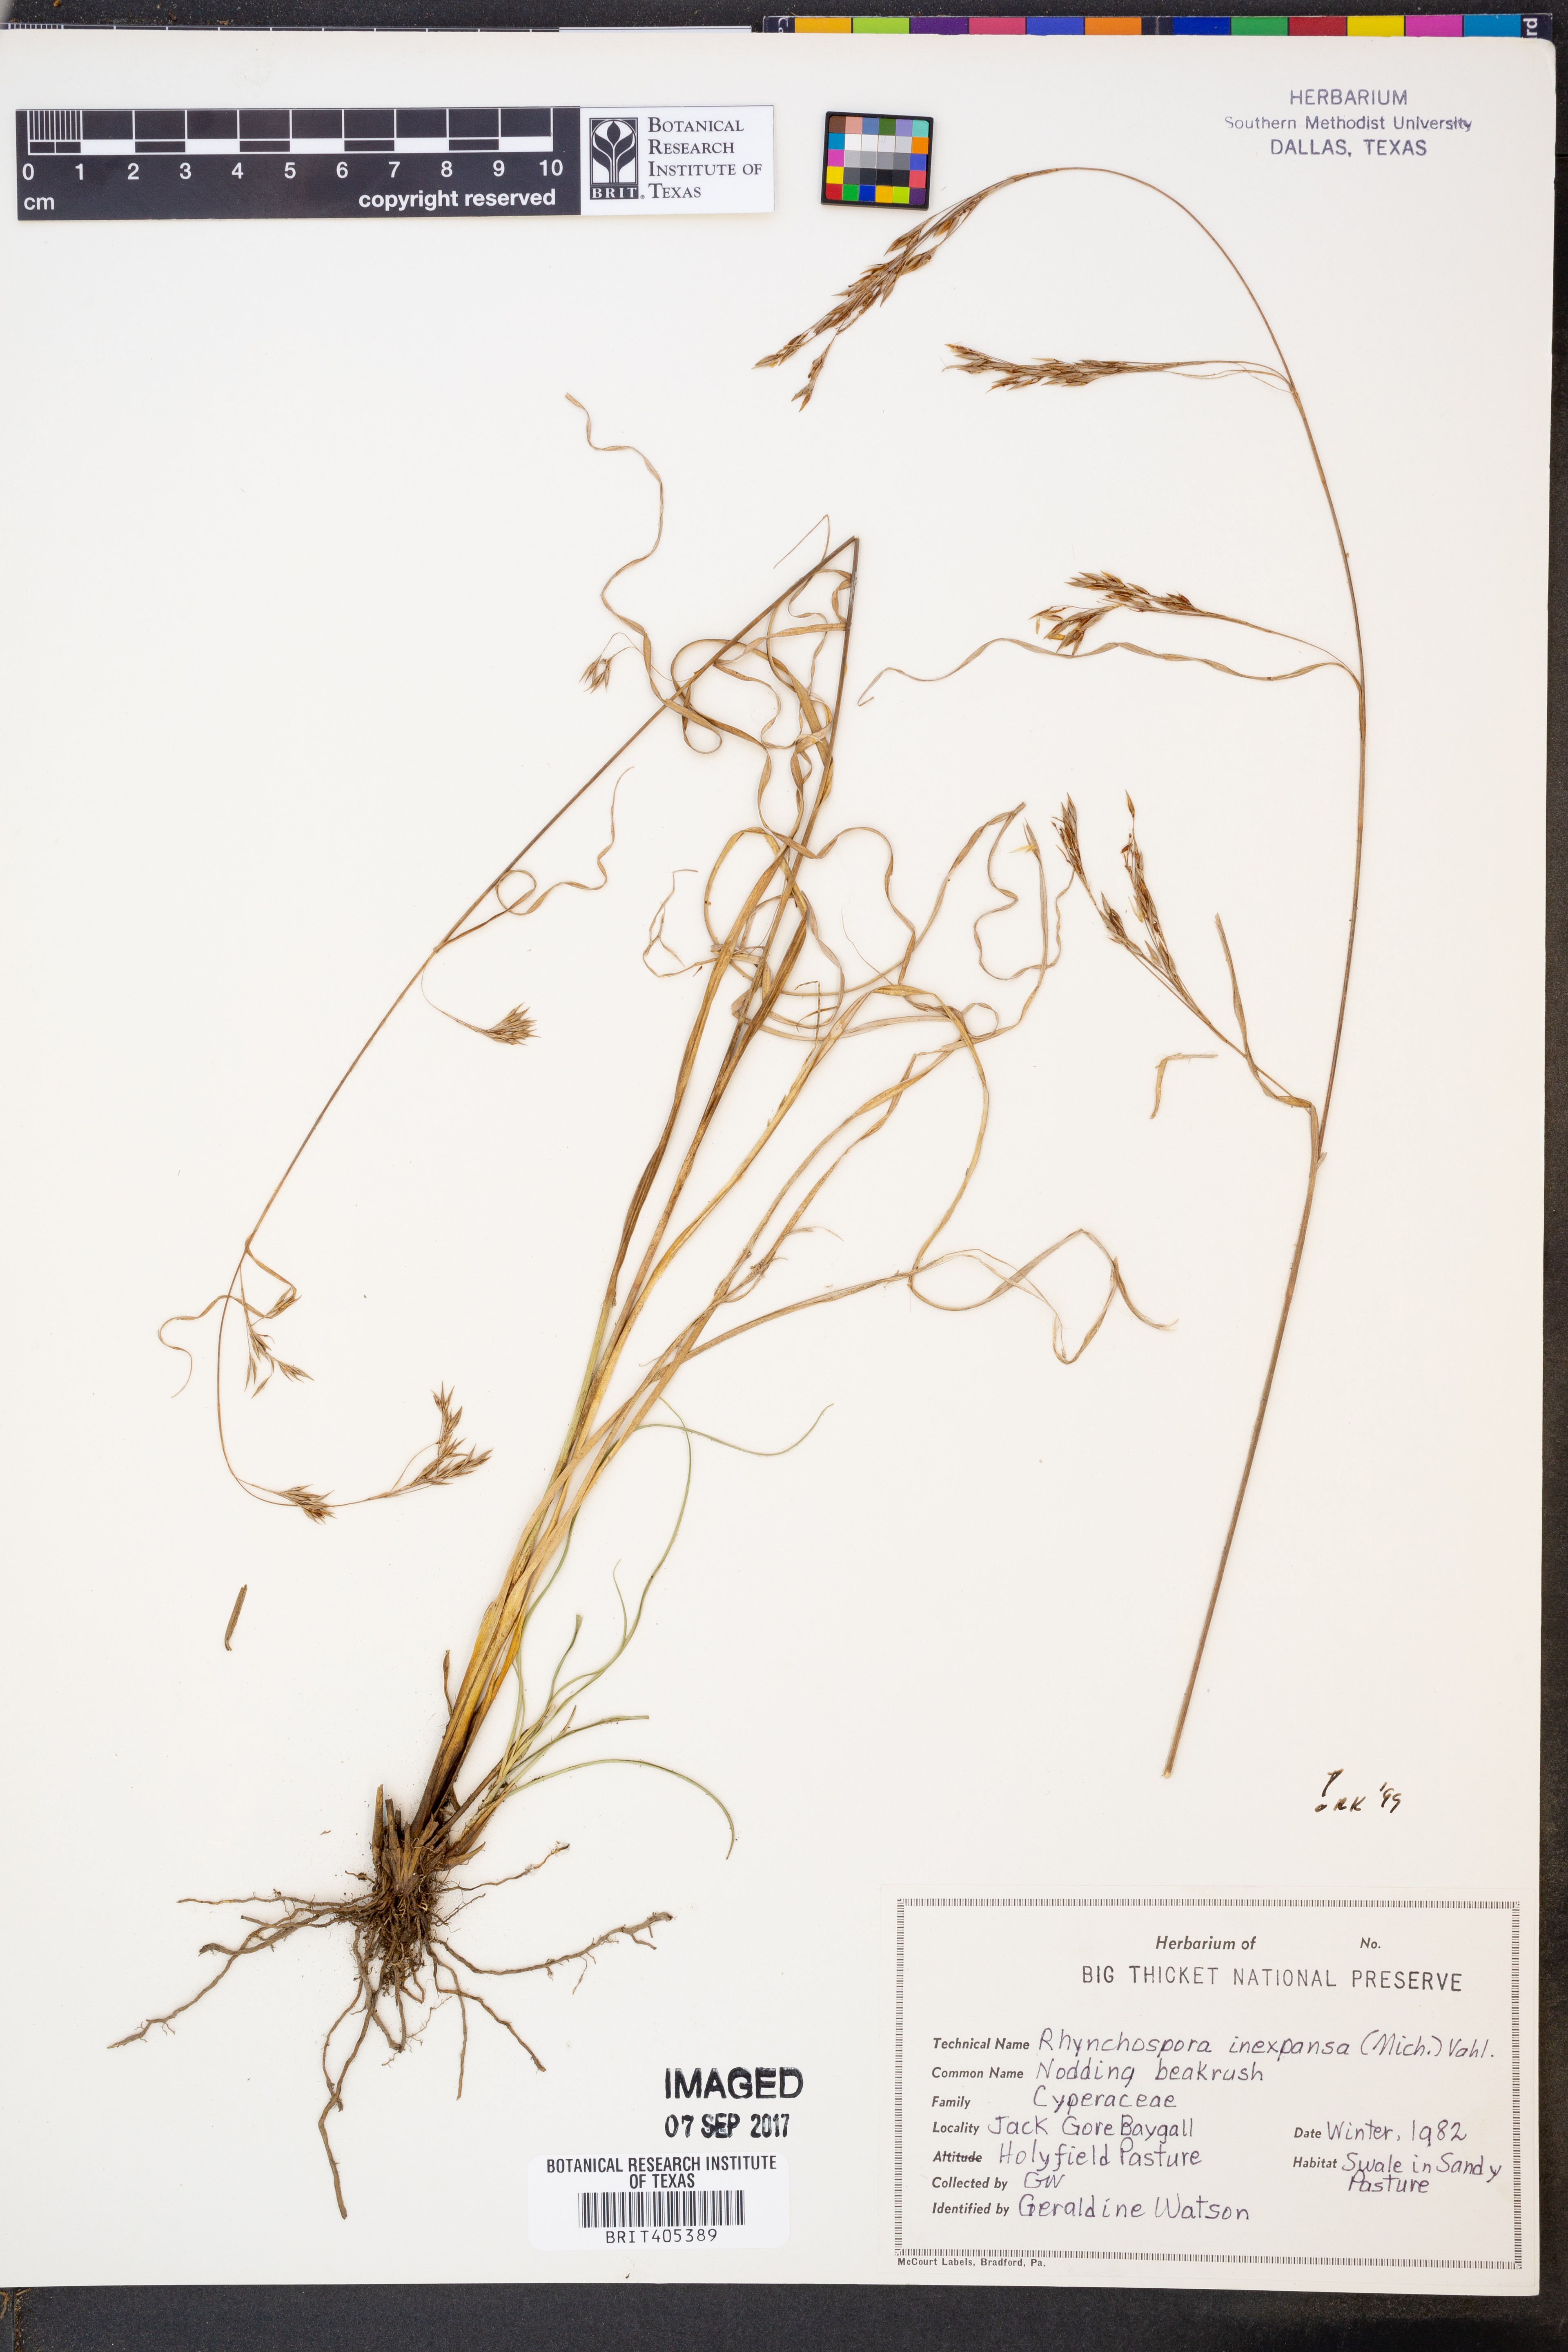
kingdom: Plantae
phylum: Tracheophyta
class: Liliopsida
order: Poales
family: Cyperaceae
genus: Rhynchospora
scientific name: Rhynchospora inexpansa
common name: Nodding beaksedge
